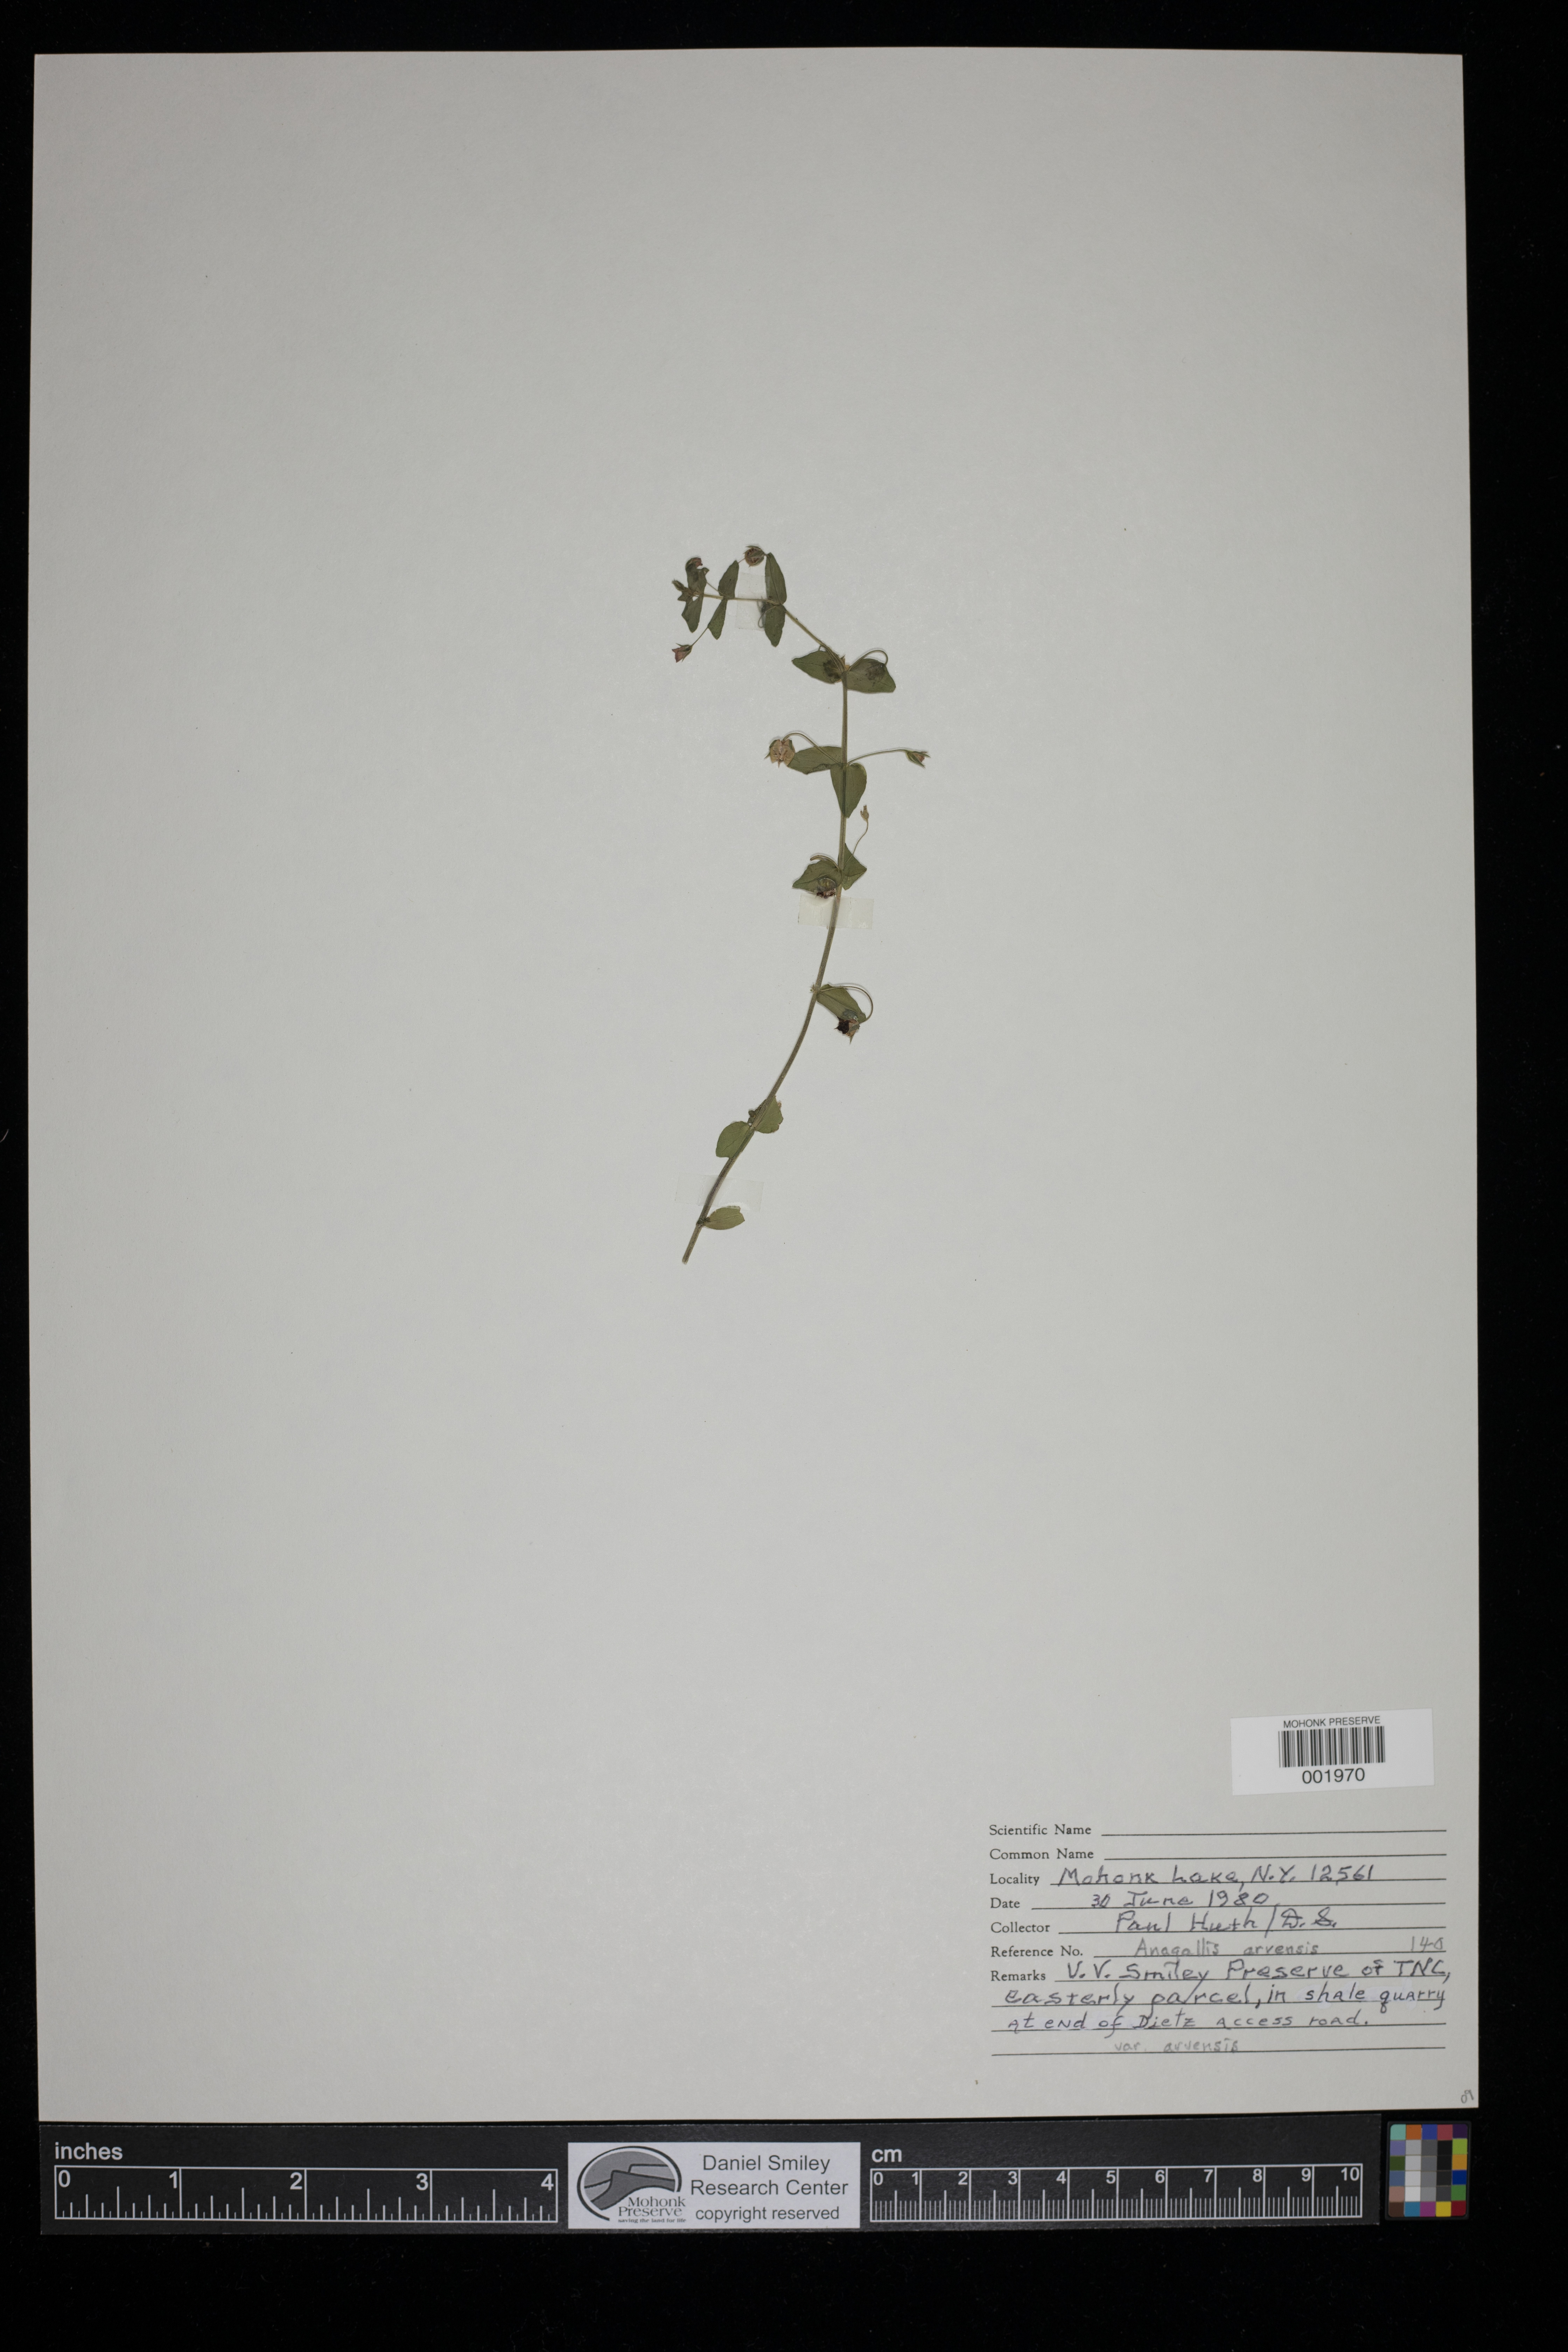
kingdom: Plantae
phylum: Tracheophyta
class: Magnoliopsida
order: Ericales
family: Primulaceae
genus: Lysimachia
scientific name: Lysimachia arvensis
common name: Scarlet pimpernel
